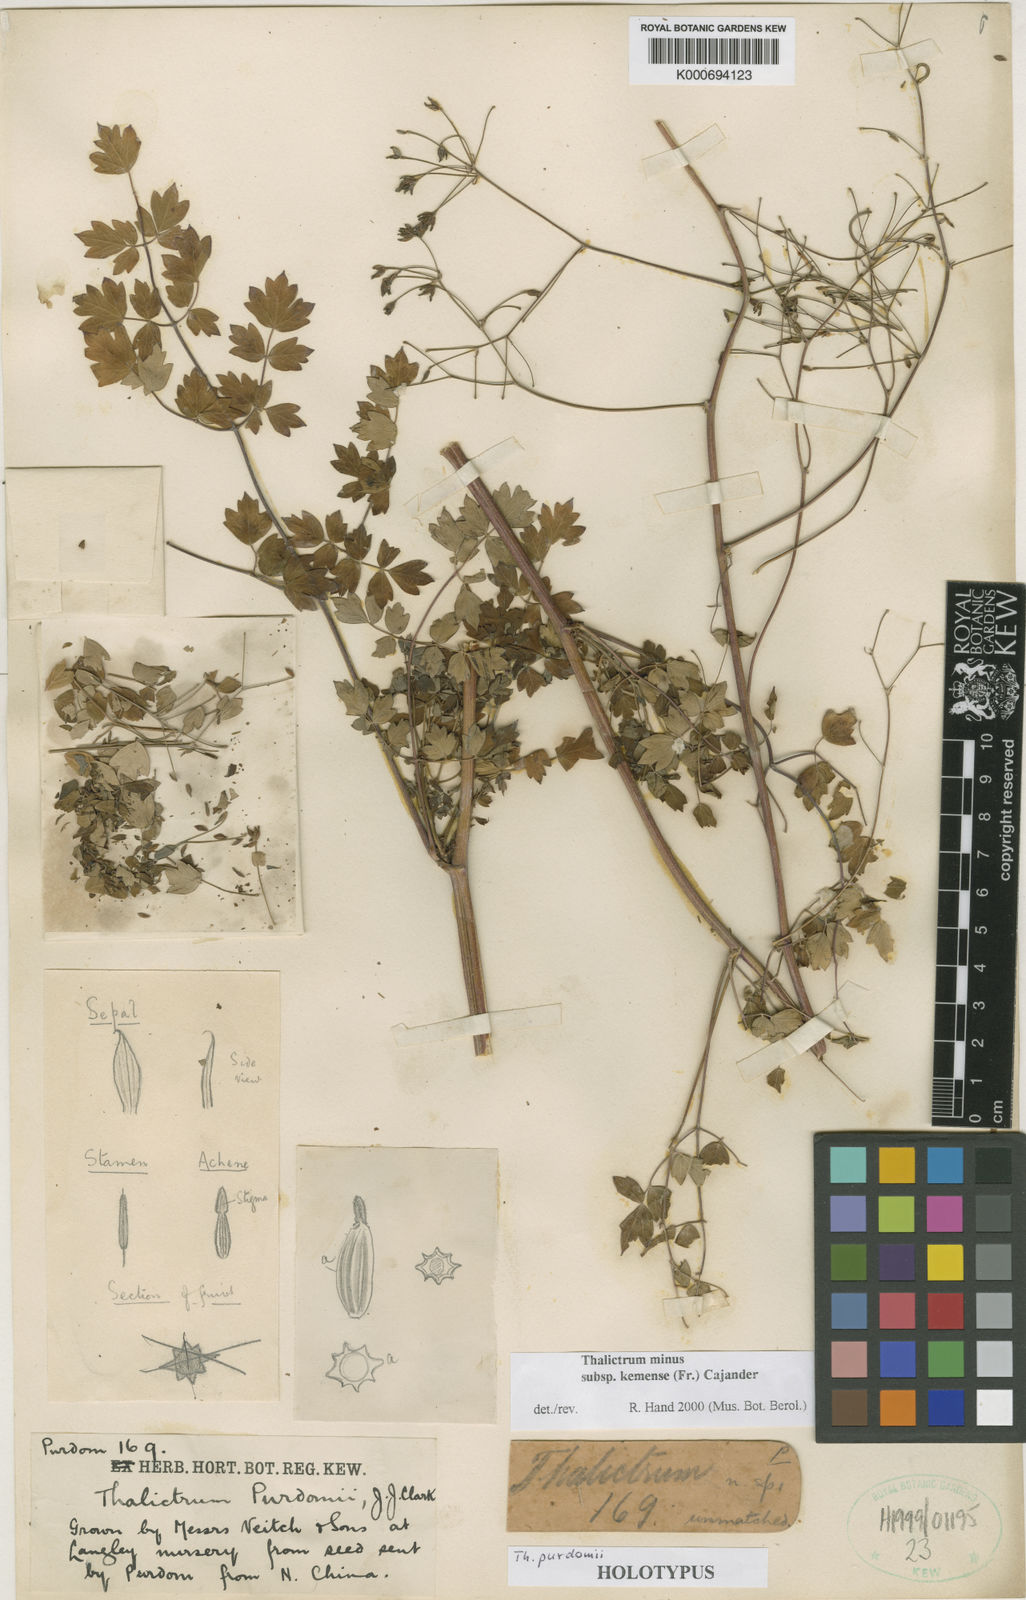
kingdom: Plantae
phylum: Tracheophyta
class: Magnoliopsida
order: Ranunculales
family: Ranunculaceae
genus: Thalictrum
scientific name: Thalictrum minus
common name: Lesser meadow-rue
